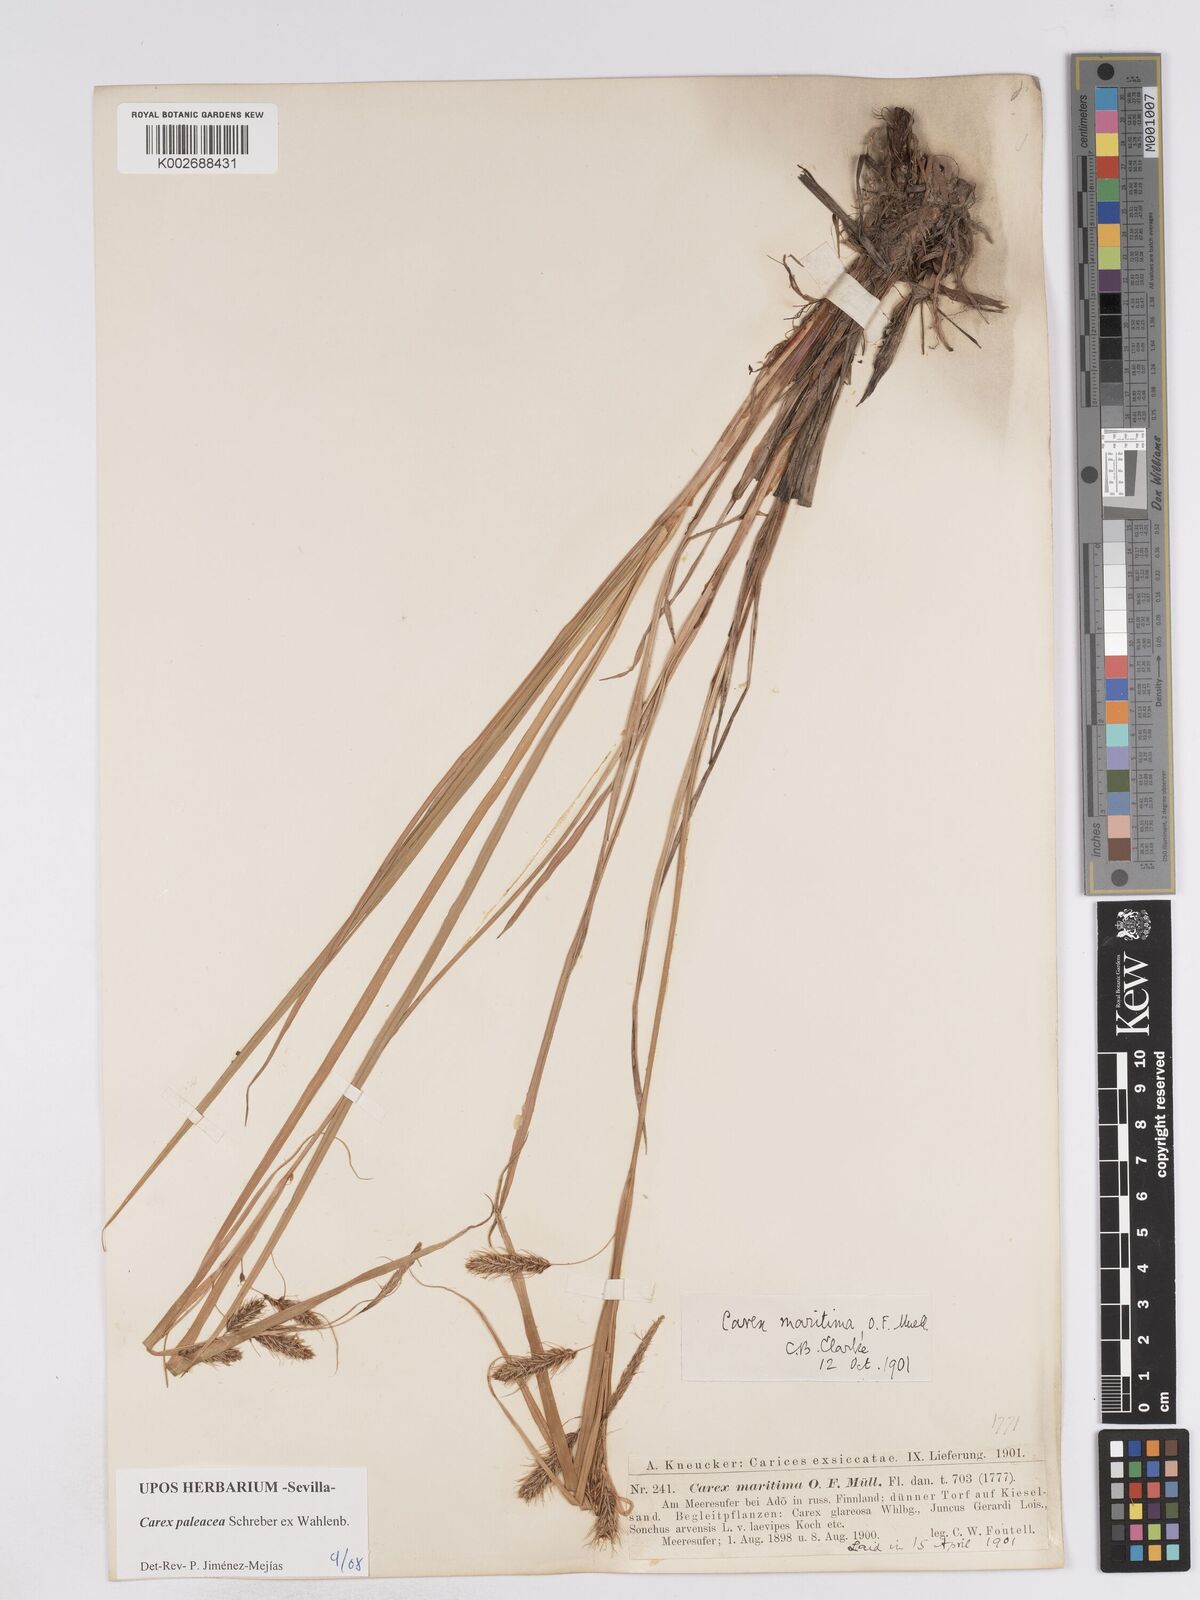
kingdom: Plantae
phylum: Tracheophyta
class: Liliopsida
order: Poales
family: Cyperaceae
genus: Carex
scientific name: Carex paleacea
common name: Chaffy sedge
